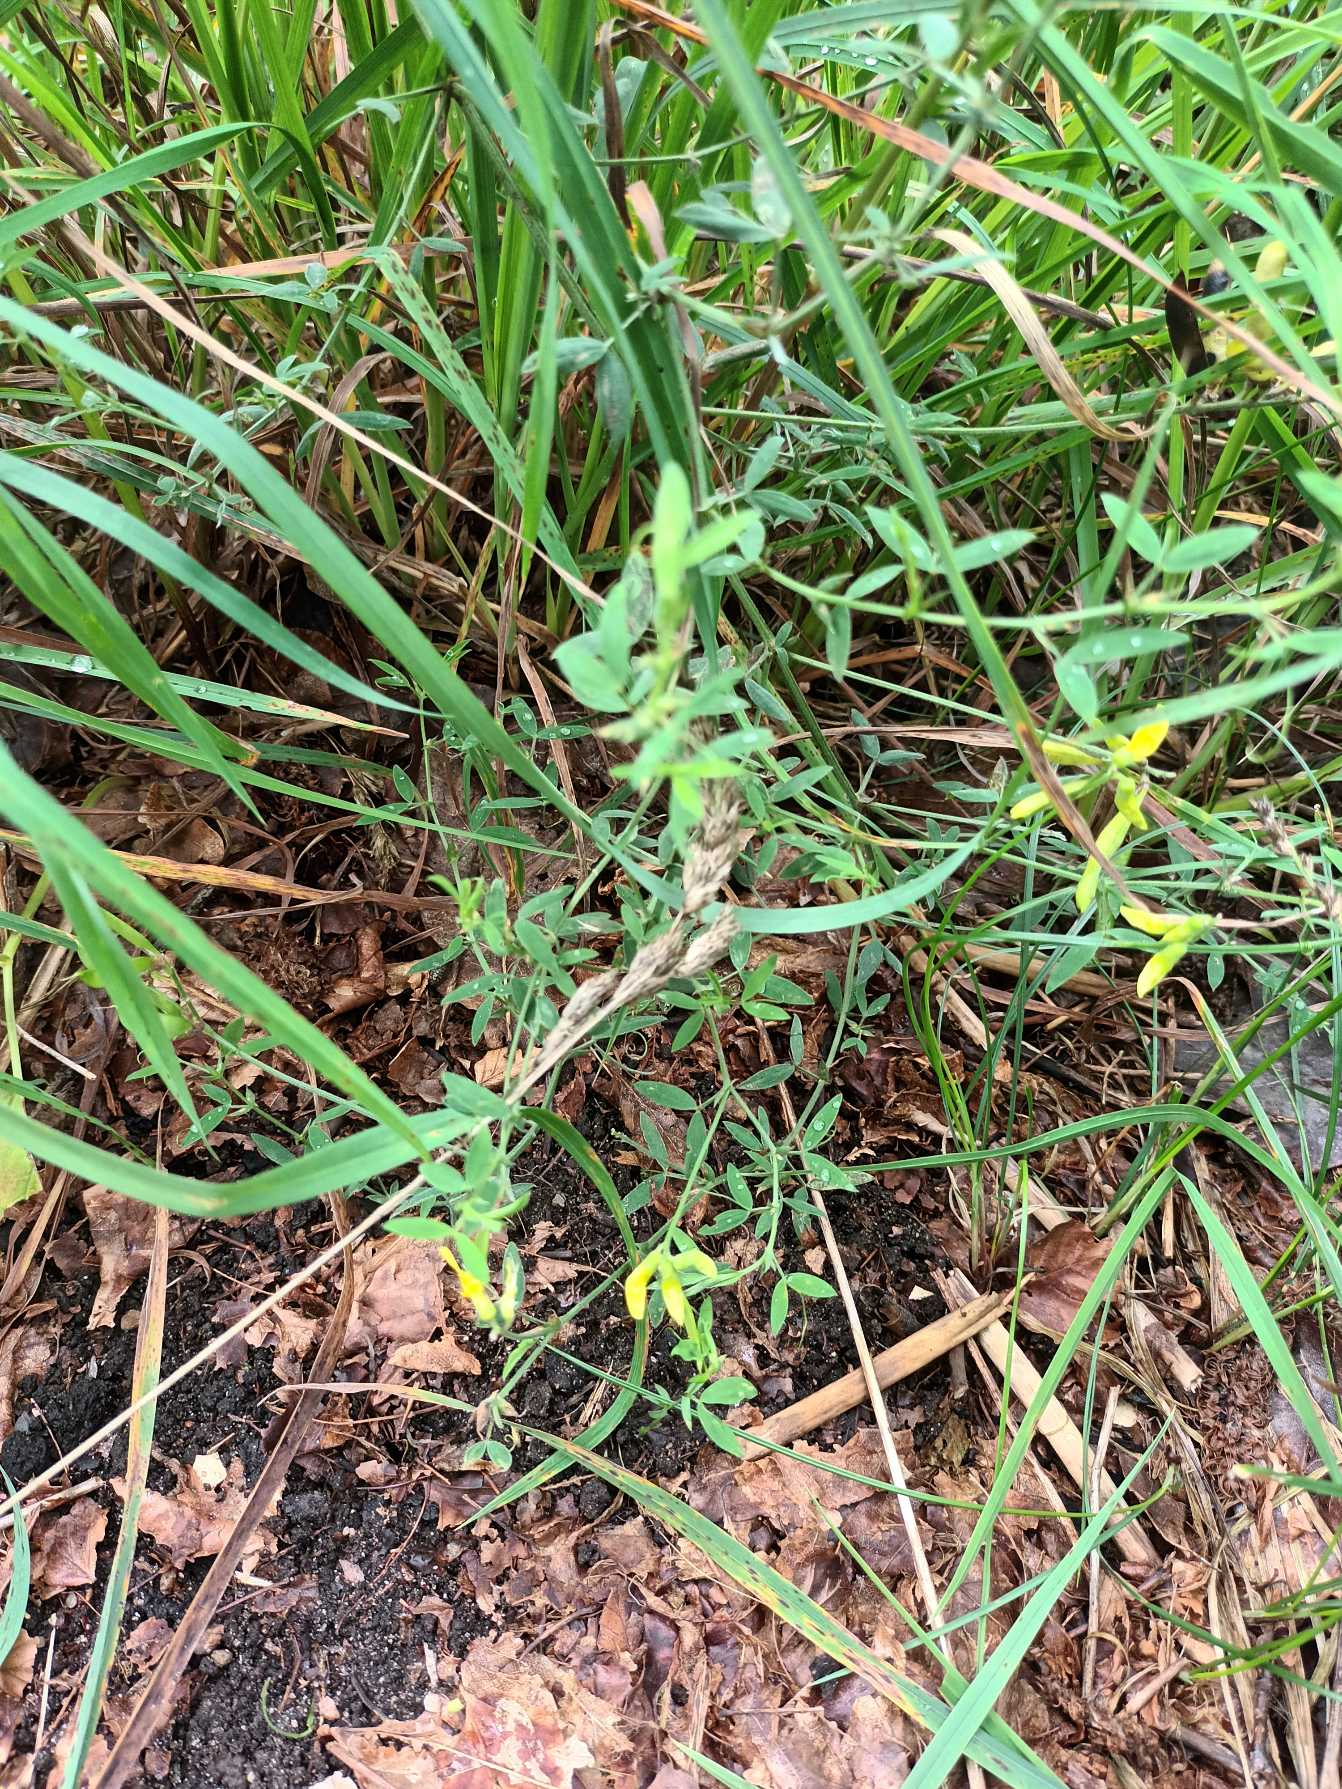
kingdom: Plantae
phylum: Tracheophyta
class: Magnoliopsida
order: Fabales
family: Fabaceae
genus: Lathyrus
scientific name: Lathyrus pratensis
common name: Gul fladbælg
